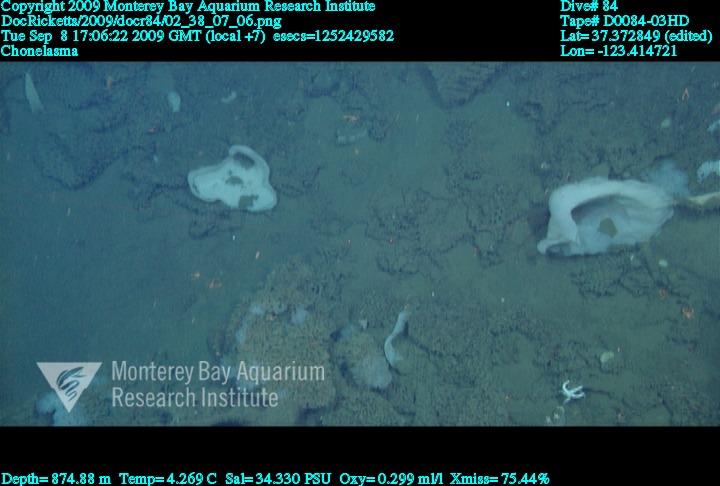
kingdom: Animalia
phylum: Porifera
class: Hexactinellida
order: Sceptrulophora
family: Euretidae
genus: Chonelasma
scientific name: Chonelasma
